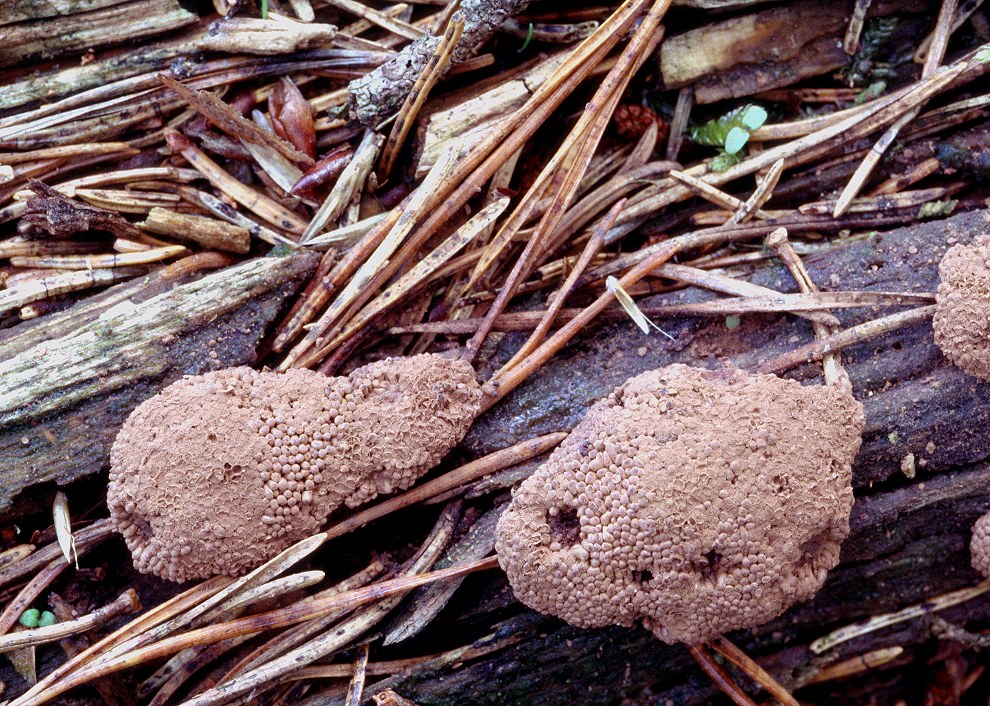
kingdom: Protozoa
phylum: Mycetozoa
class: Myxomycetes
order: Cribrariales
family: Tubiferaceae
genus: Tubifera
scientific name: Tubifera ferruginosa
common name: kanel-støvrør
